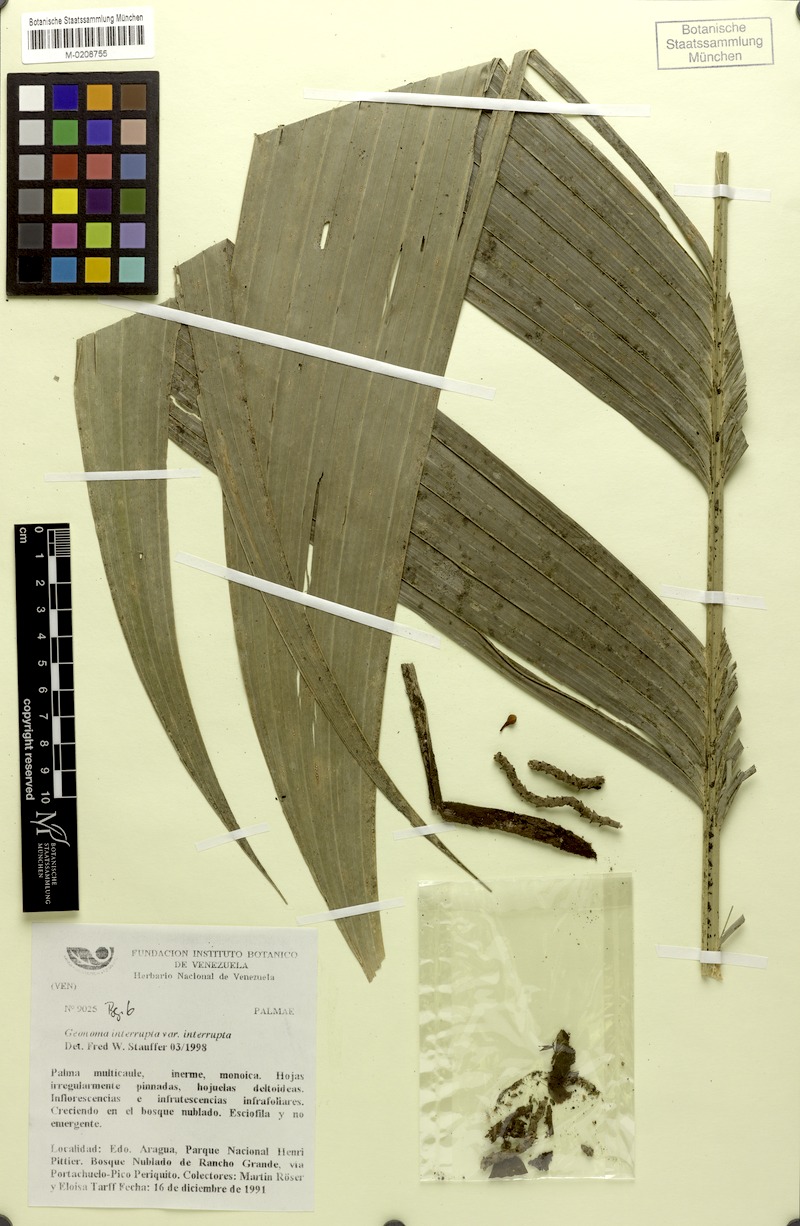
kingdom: Plantae
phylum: Tracheophyta
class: Liliopsida
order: Arecales
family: Arecaceae
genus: Geonoma
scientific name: Geonoma interrupta
